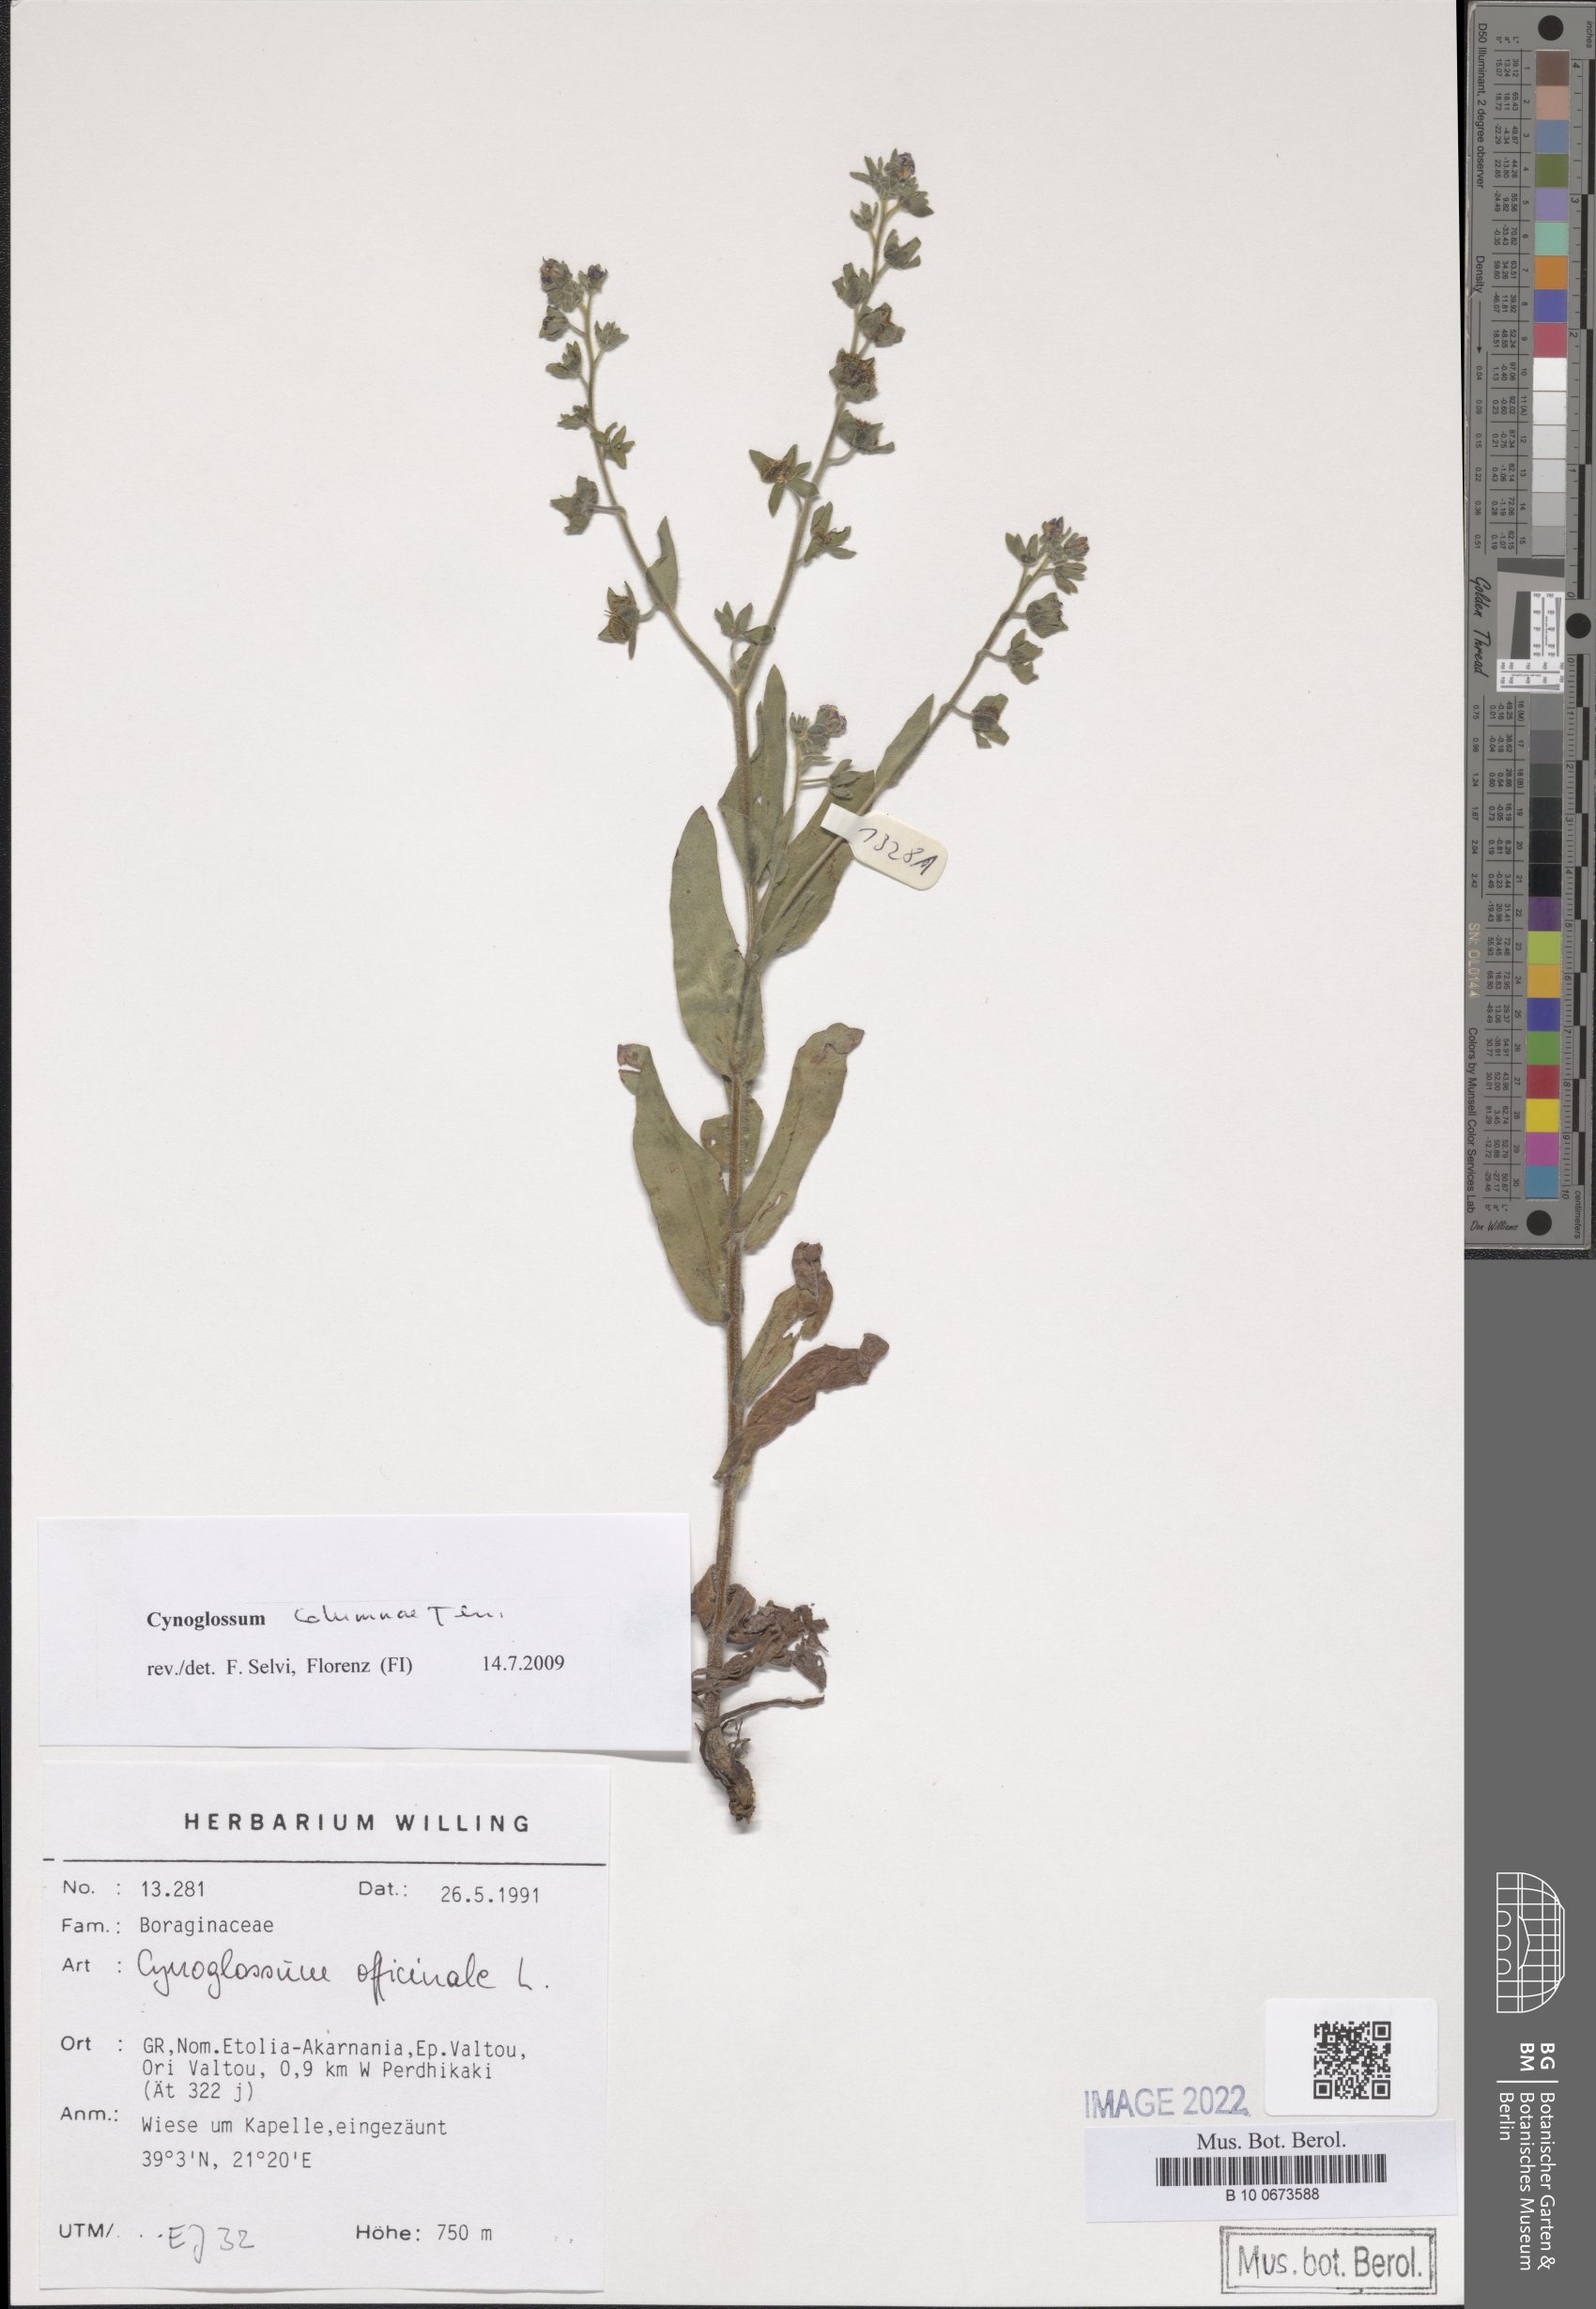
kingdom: Plantae
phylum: Tracheophyta
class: Magnoliopsida
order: Boraginales
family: Boraginaceae
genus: Rindera
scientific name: Rindera columnae
